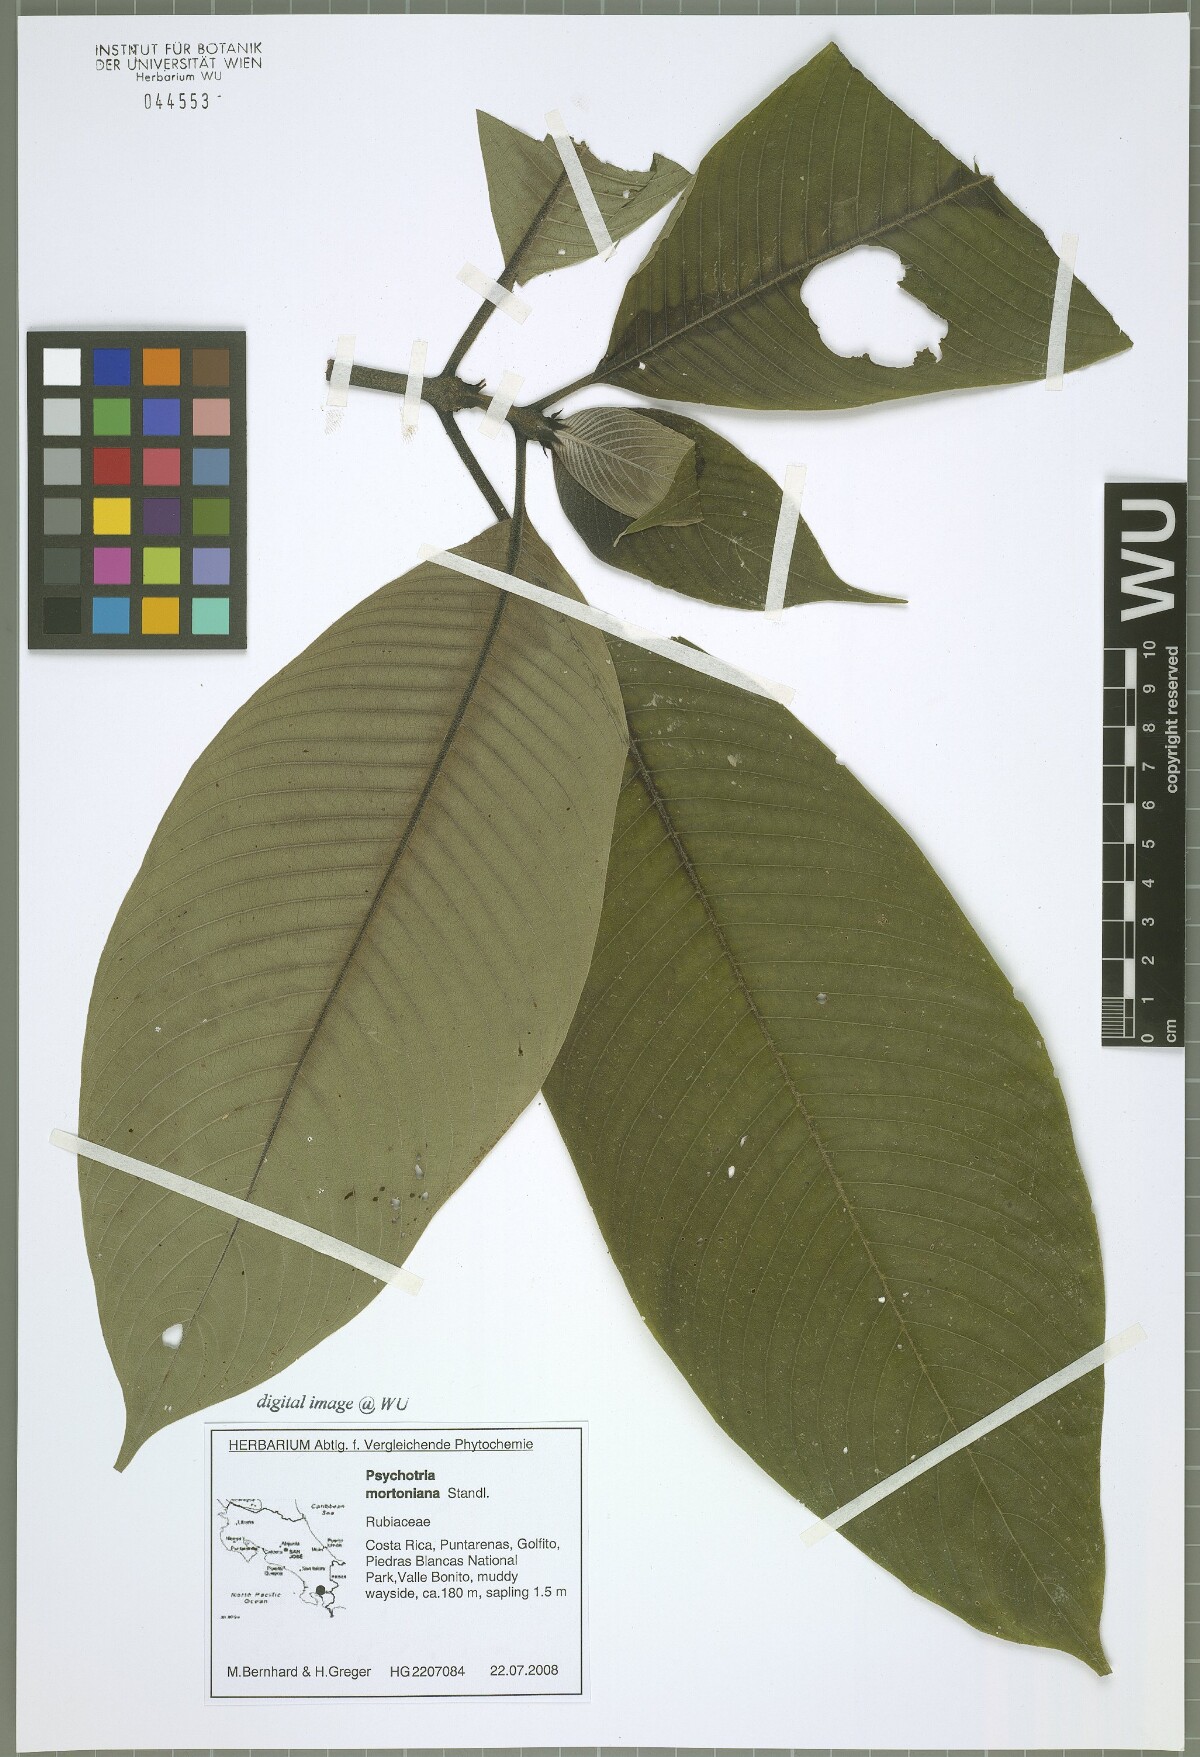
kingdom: Plantae
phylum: Tracheophyta
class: Magnoliopsida
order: Gentianales
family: Rubiaceae
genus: Palicourea
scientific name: Palicourea mortoniana
